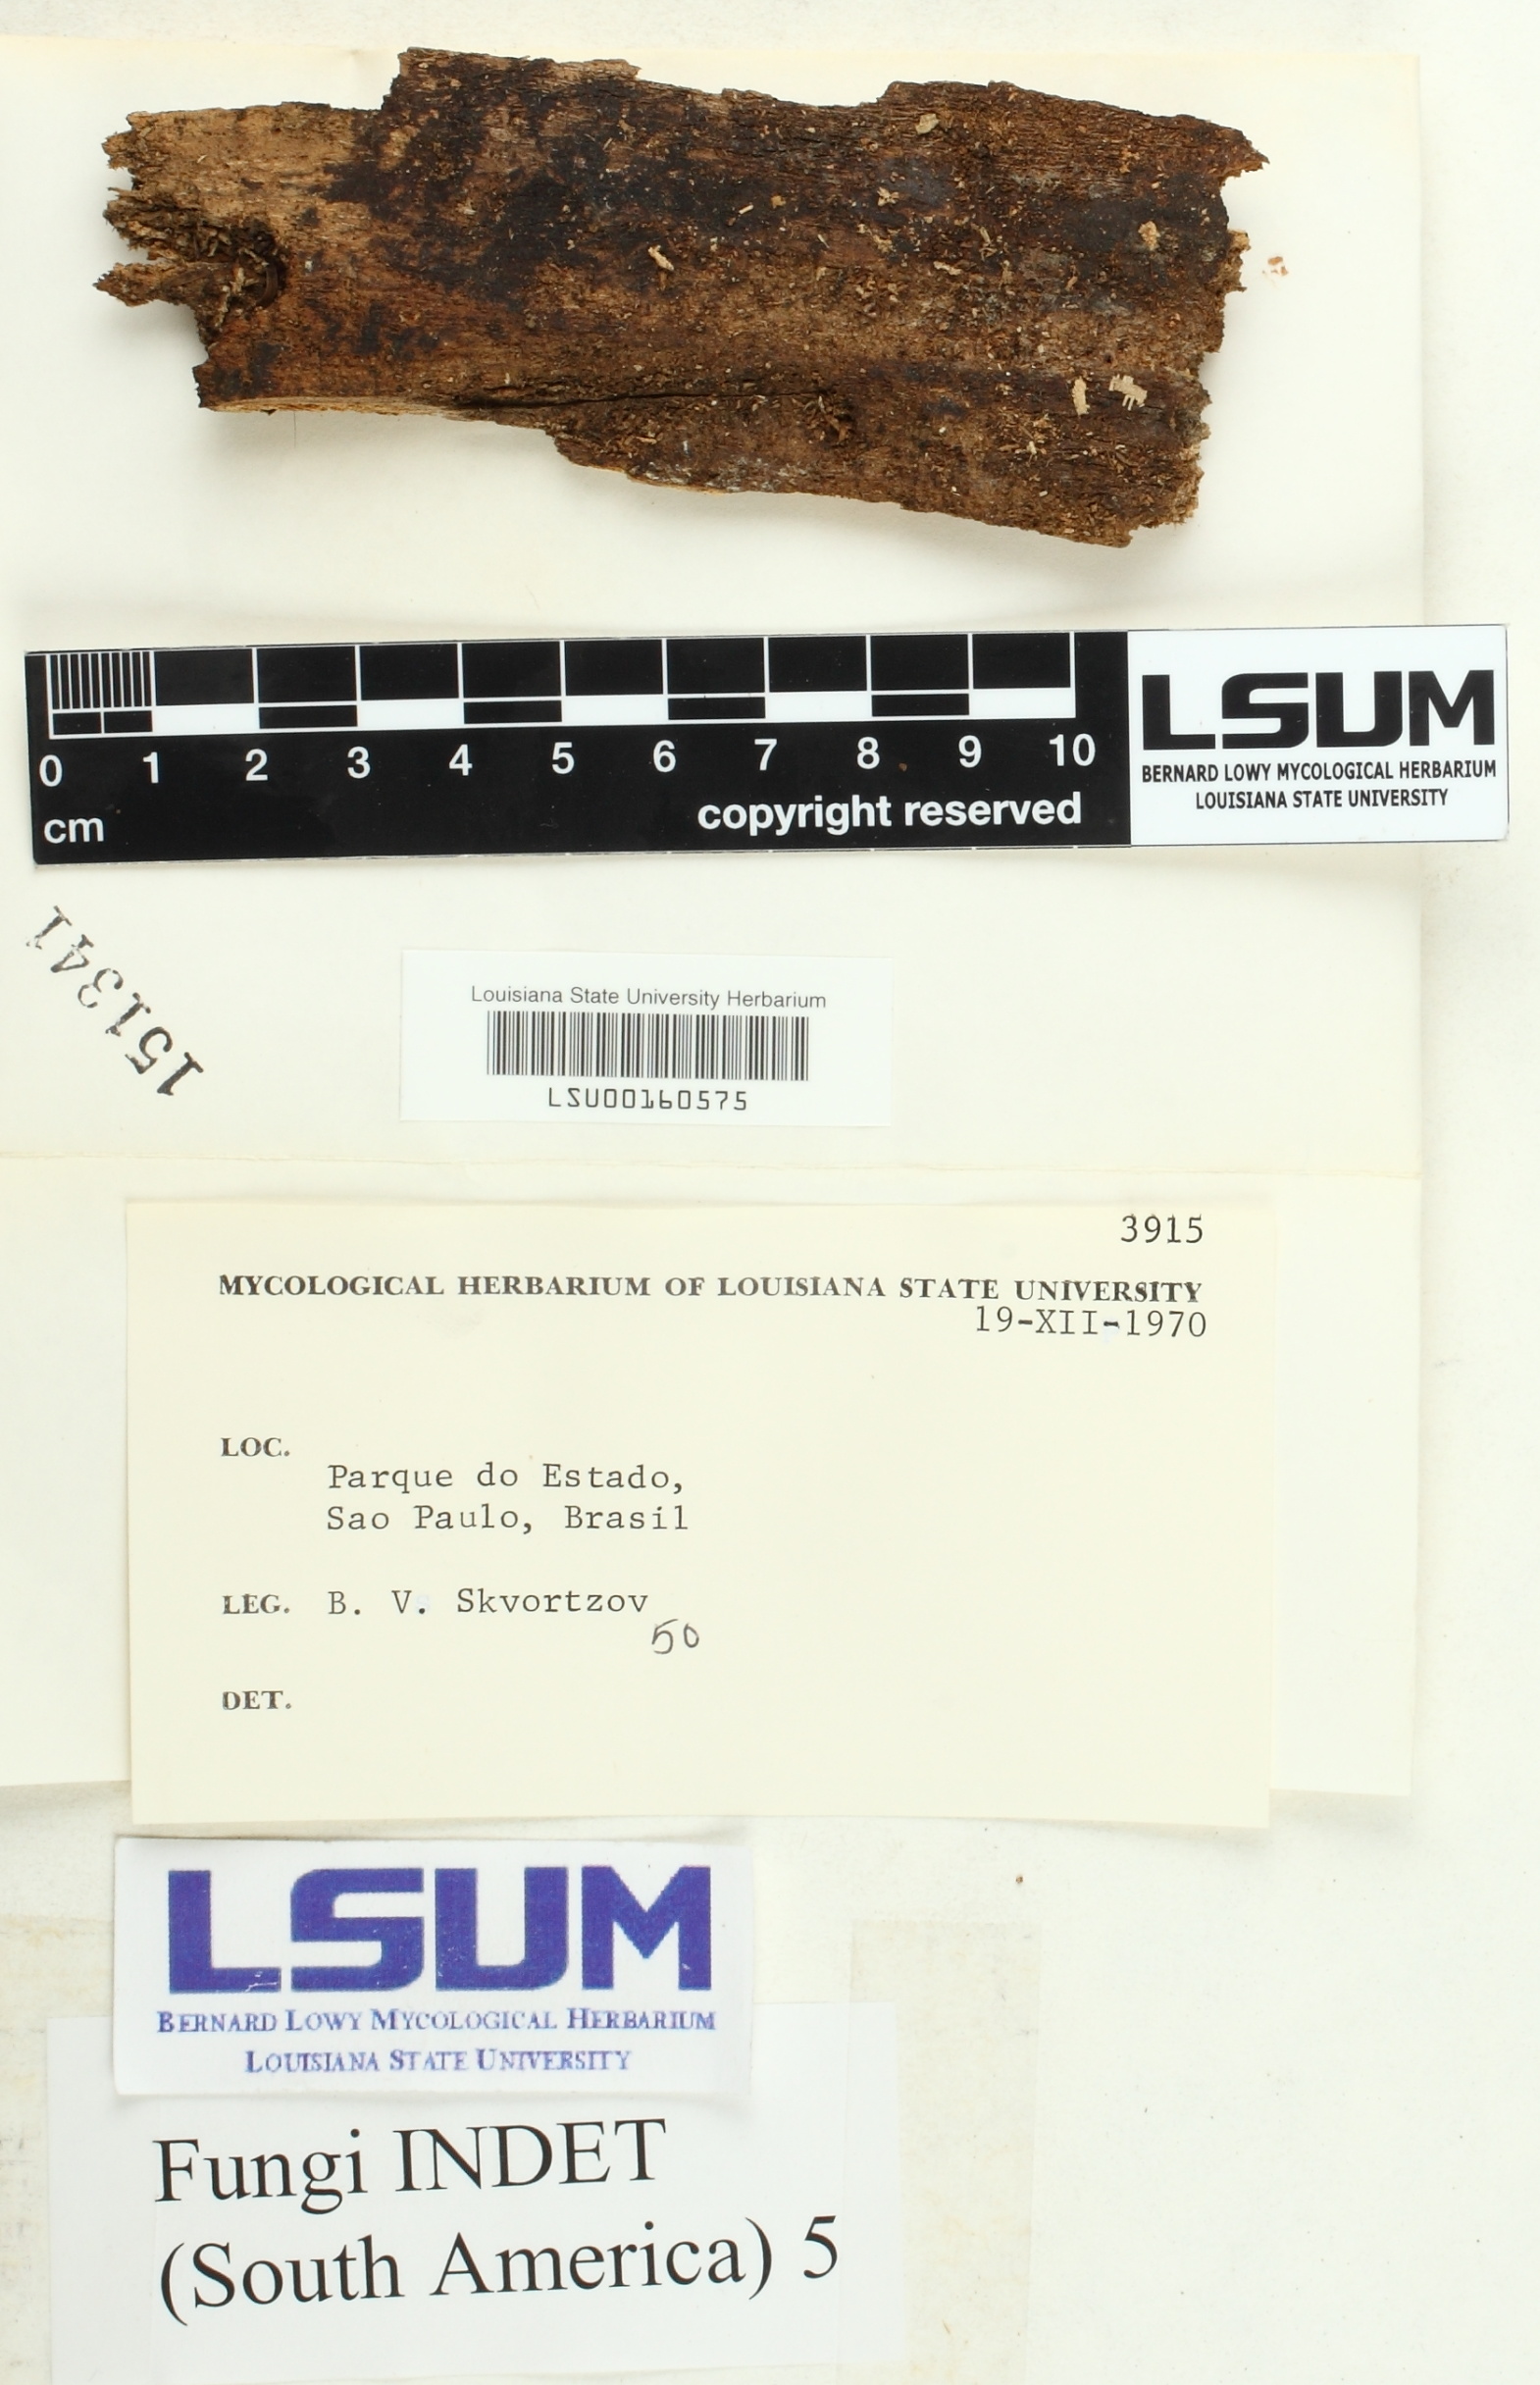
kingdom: Fungi
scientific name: Fungi
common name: Fungi
